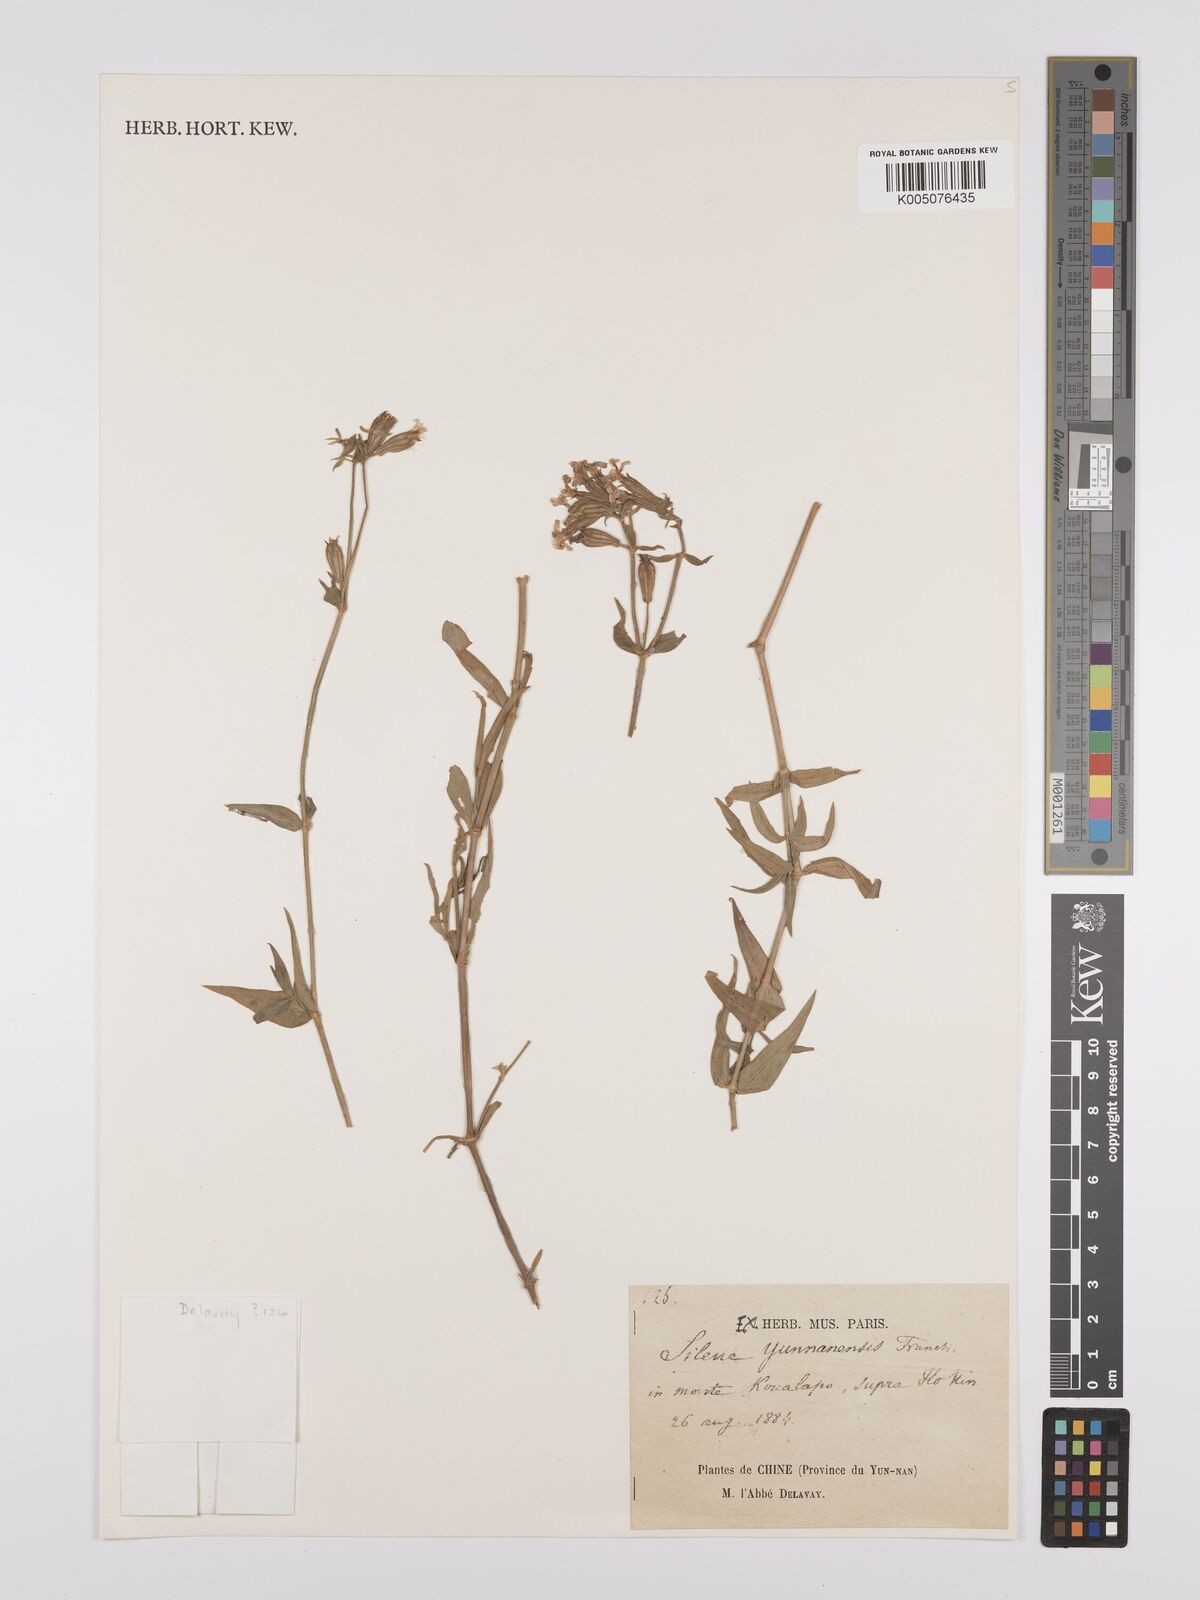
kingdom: Plantae
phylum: Tracheophyta
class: Magnoliopsida
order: Caryophyllales
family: Caryophyllaceae
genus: Silene
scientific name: Silene yunnanensis
